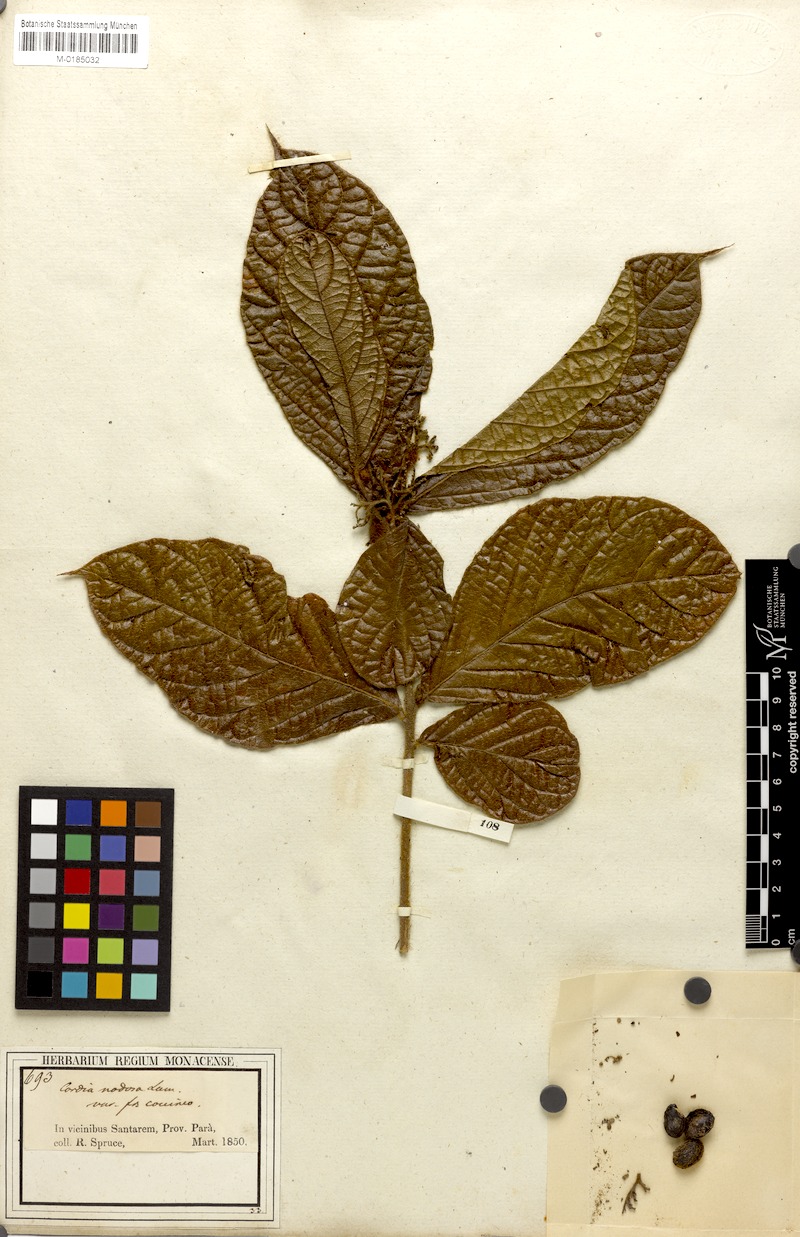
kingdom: Plantae
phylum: Tracheophyta
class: Magnoliopsida
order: Boraginales
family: Cordiaceae
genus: Cordia
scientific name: Cordia nodosa
